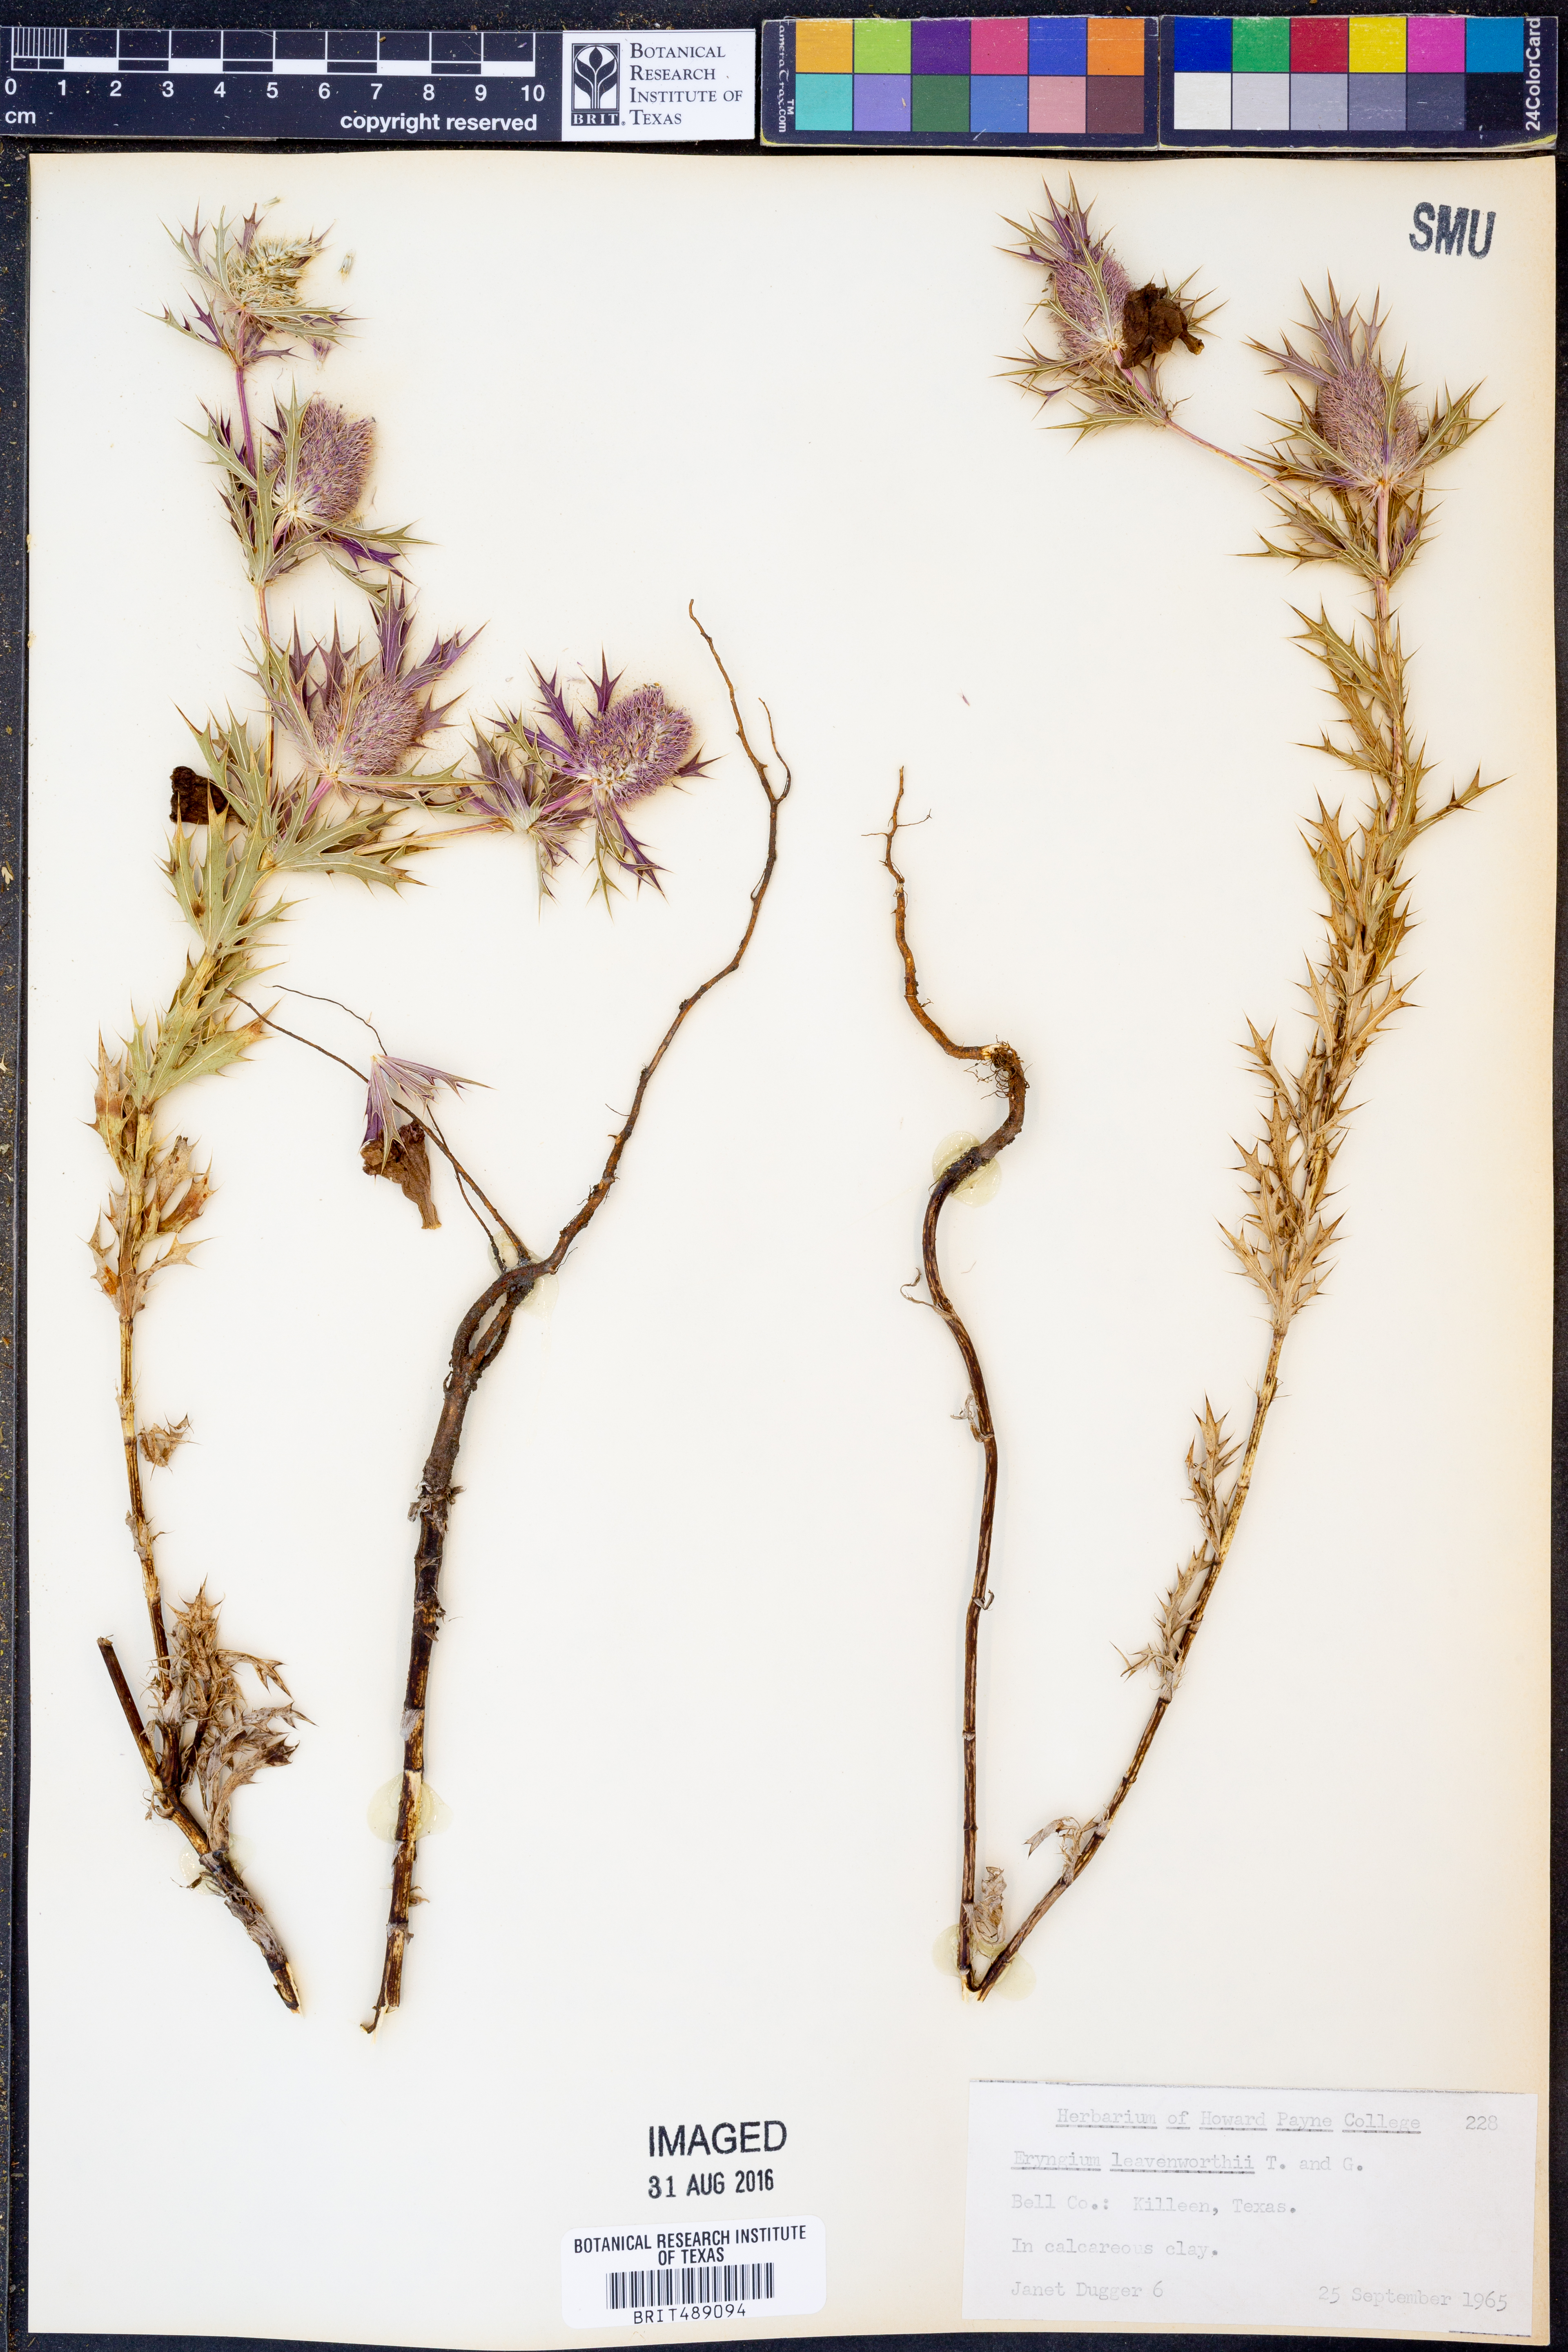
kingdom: Plantae
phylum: Tracheophyta
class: Magnoliopsida
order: Apiales
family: Apiaceae
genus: Eryngium
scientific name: Eryngium leavenworthii
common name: Leavenworth's eryngo
